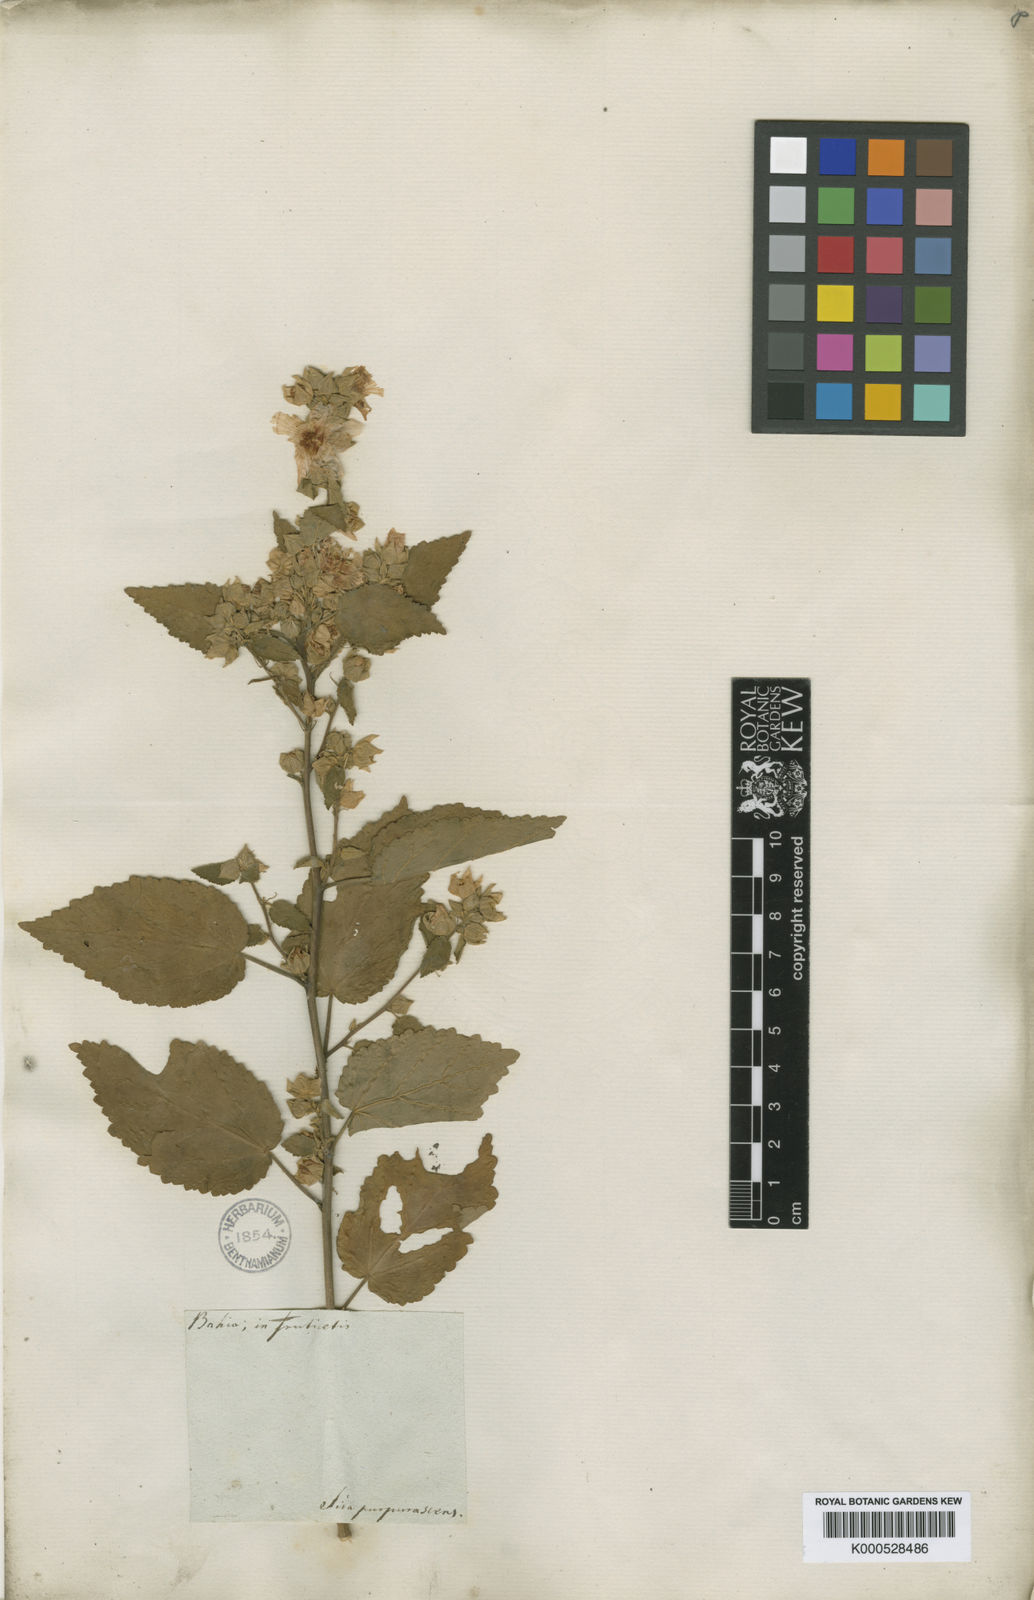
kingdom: Plantae
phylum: Tracheophyta
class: Magnoliopsida
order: Malvales
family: Malvaceae
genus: Sida
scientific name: Sida ulei
